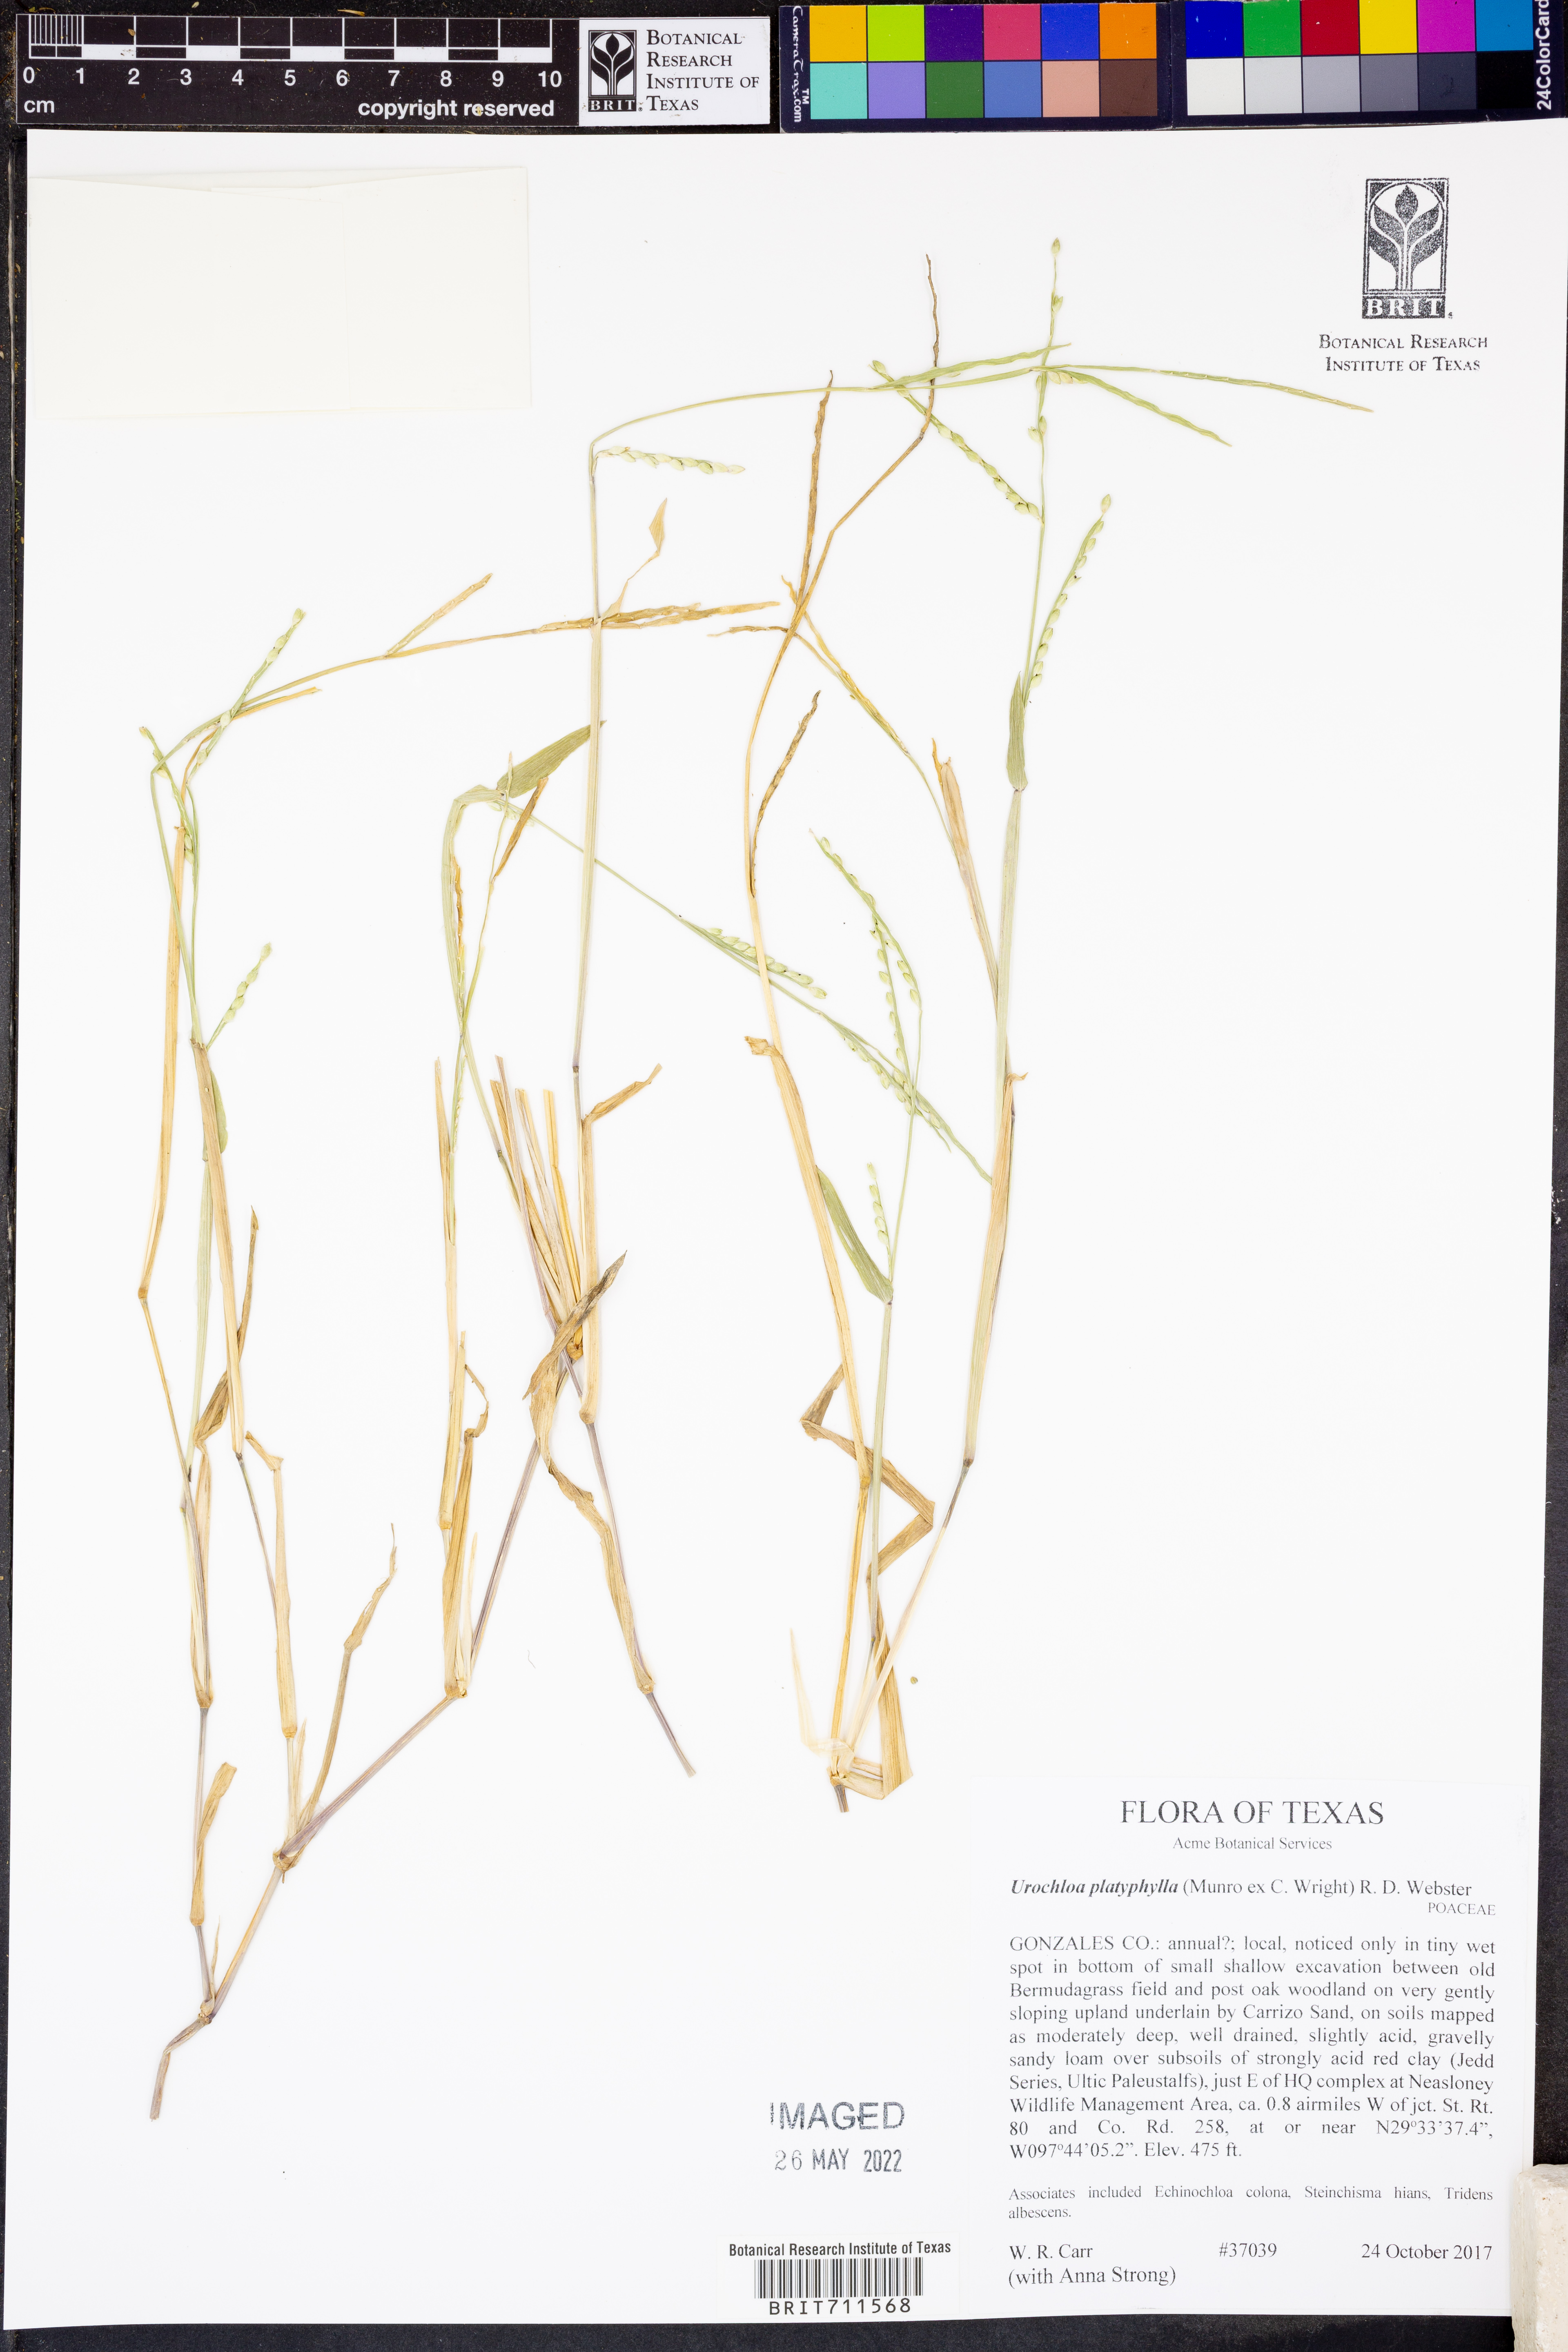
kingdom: Plantae
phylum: Tracheophyta
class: Liliopsida
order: Poales
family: Poaceae
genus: Urochloa
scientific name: Urochloa platyphylla
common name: White para grass
